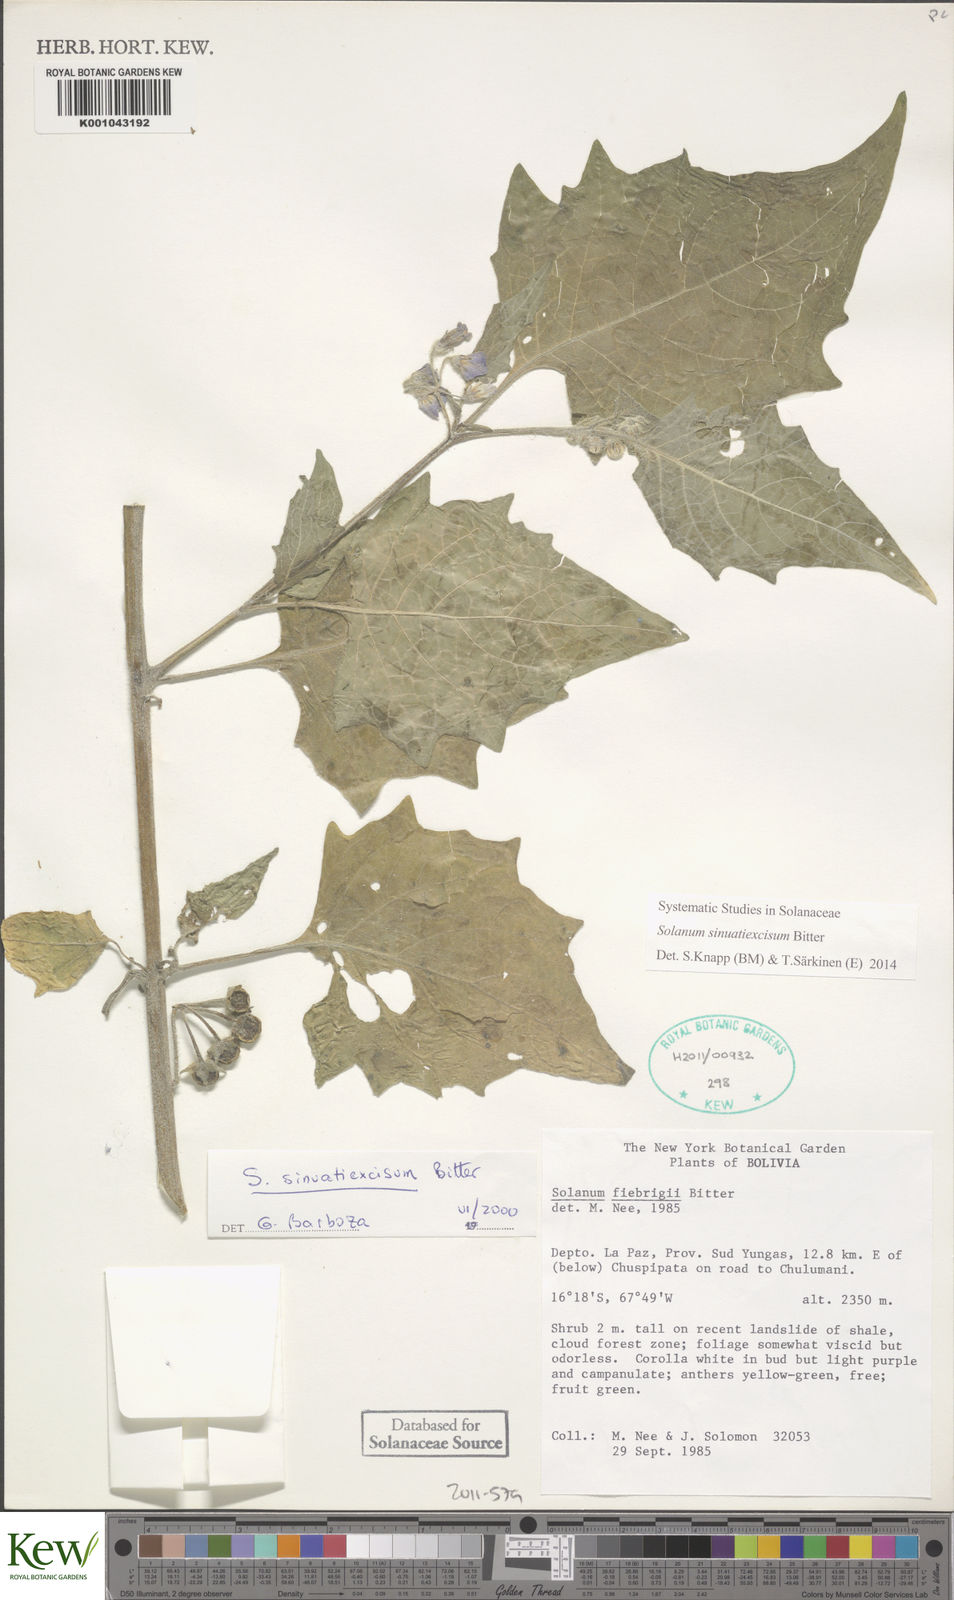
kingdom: Plantae
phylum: Tracheophyta
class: Magnoliopsida
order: Solanales
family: Solanaceae
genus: Solanum
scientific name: Solanum sinuatiexcisum
